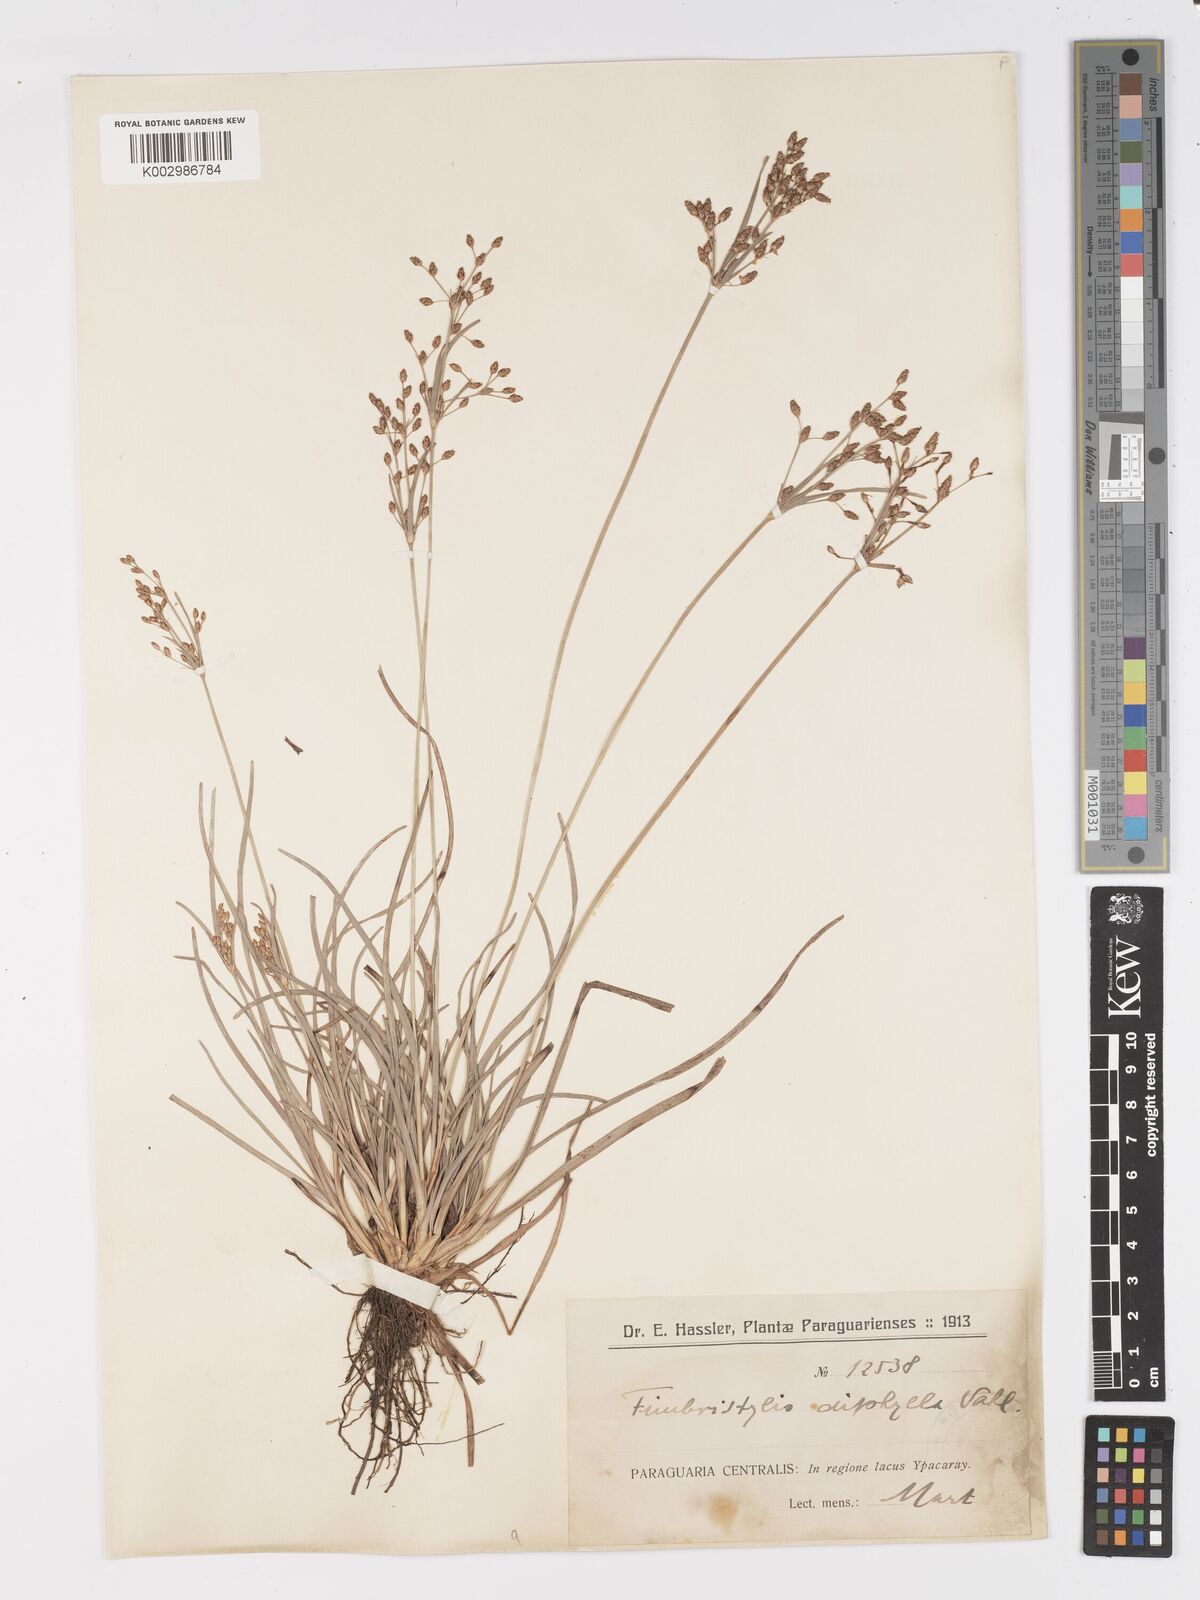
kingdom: Plantae
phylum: Tracheophyta
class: Liliopsida
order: Poales
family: Cyperaceae
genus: Fimbristylis
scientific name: Fimbristylis dichotoma
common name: Forked fimbry
